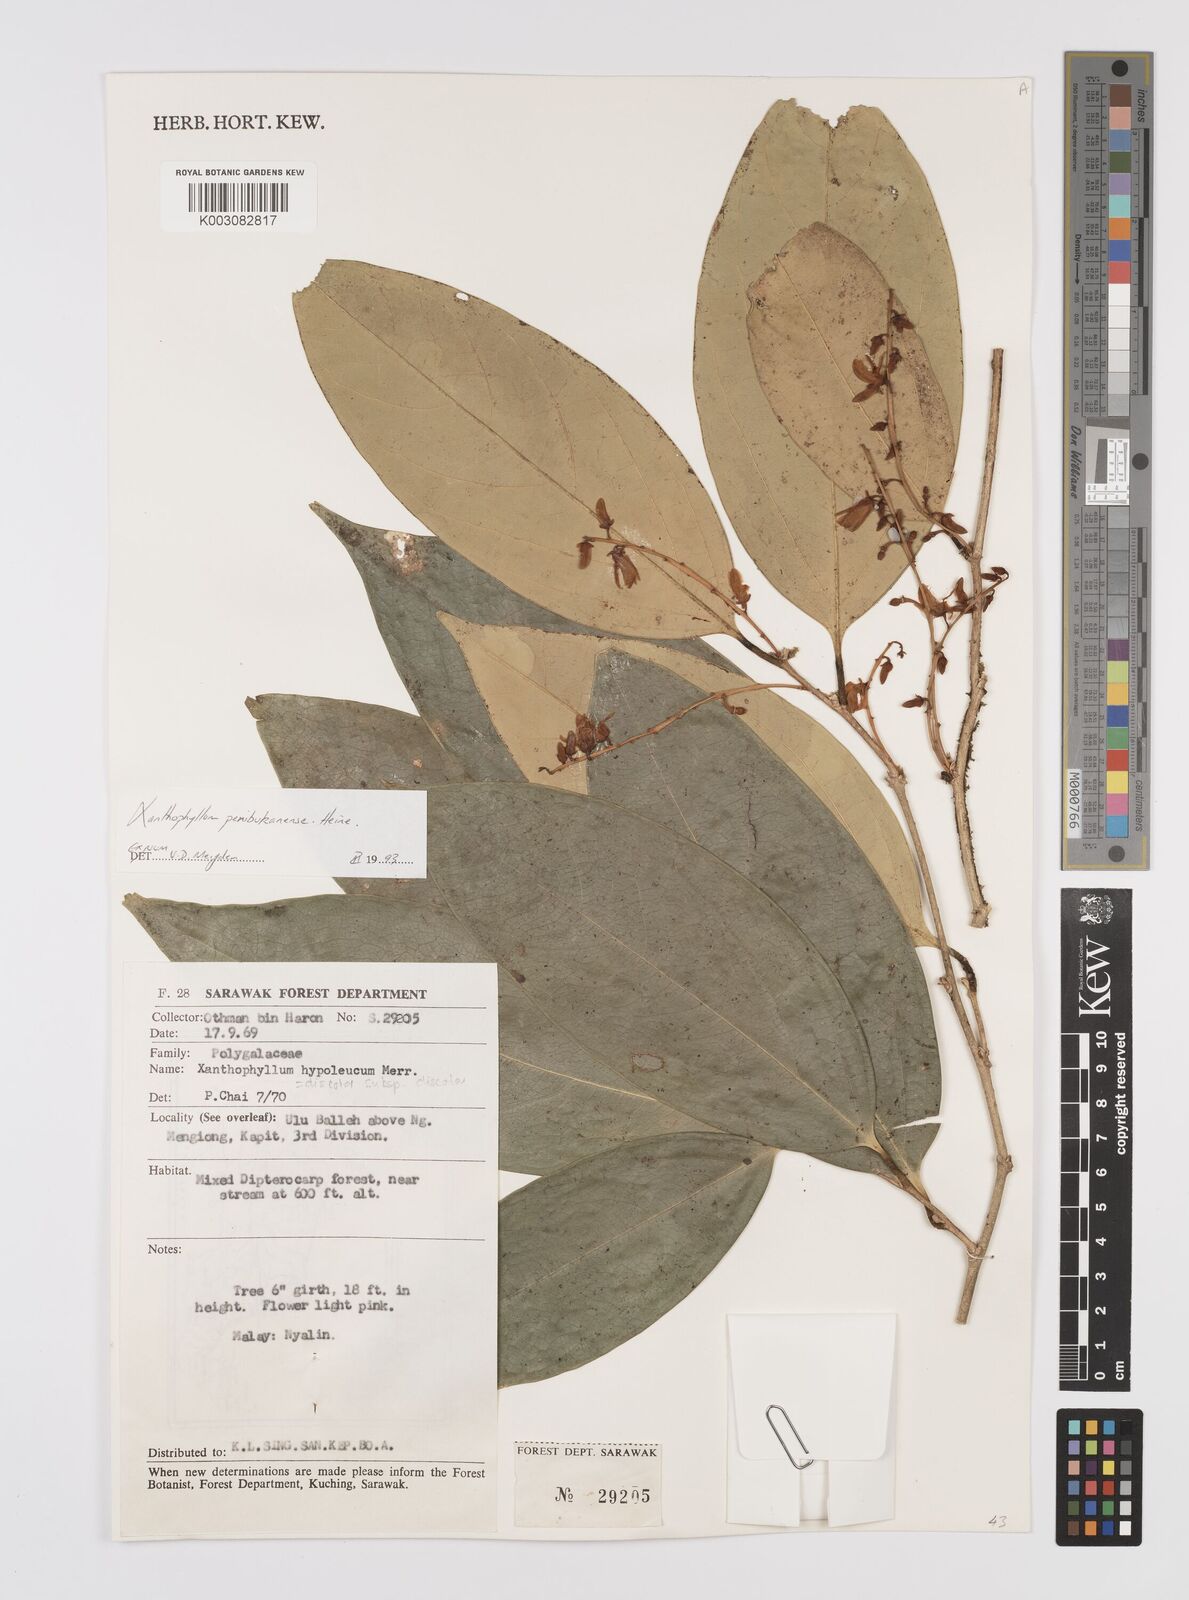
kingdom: Plantae
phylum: Tracheophyta
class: Magnoliopsida
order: Fabales
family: Polygalaceae
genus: Xanthophyllum
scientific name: Xanthophyllum penibukanense
